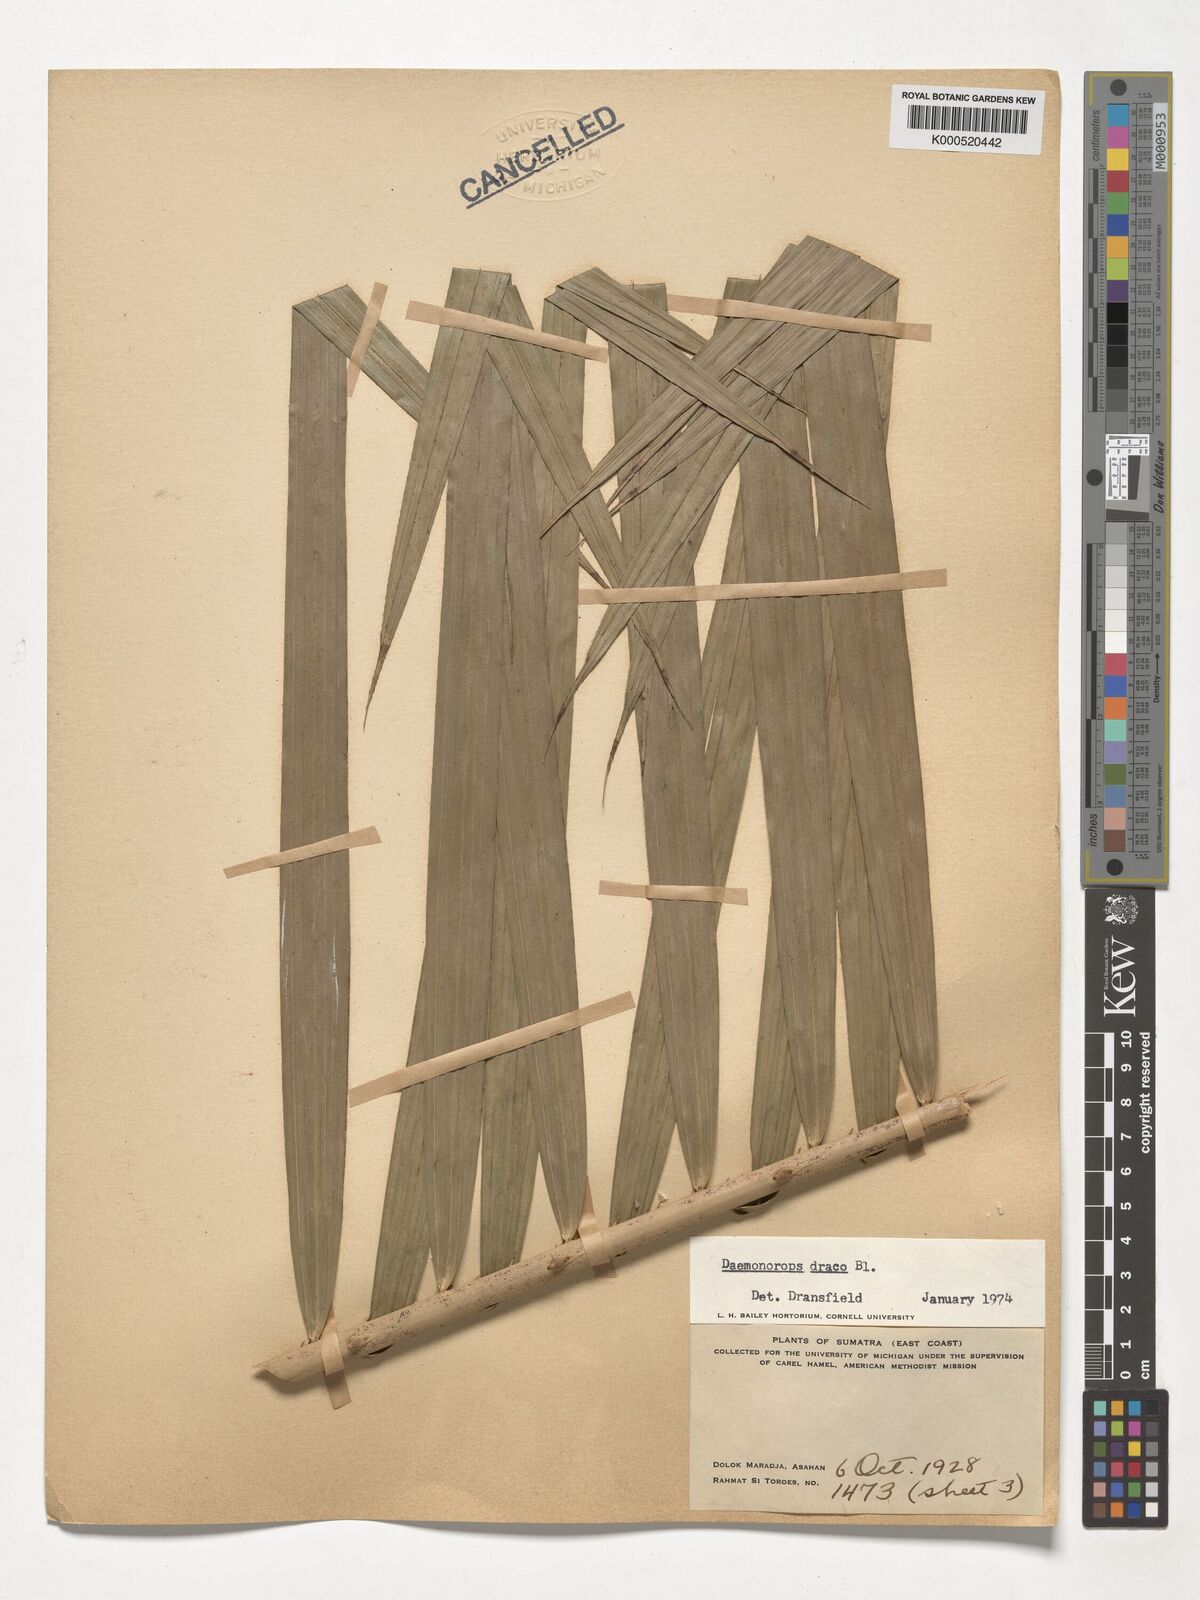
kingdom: Plantae
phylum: Tracheophyta
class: Liliopsida
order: Arecales
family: Arecaceae
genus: Calamus
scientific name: Calamus draco
